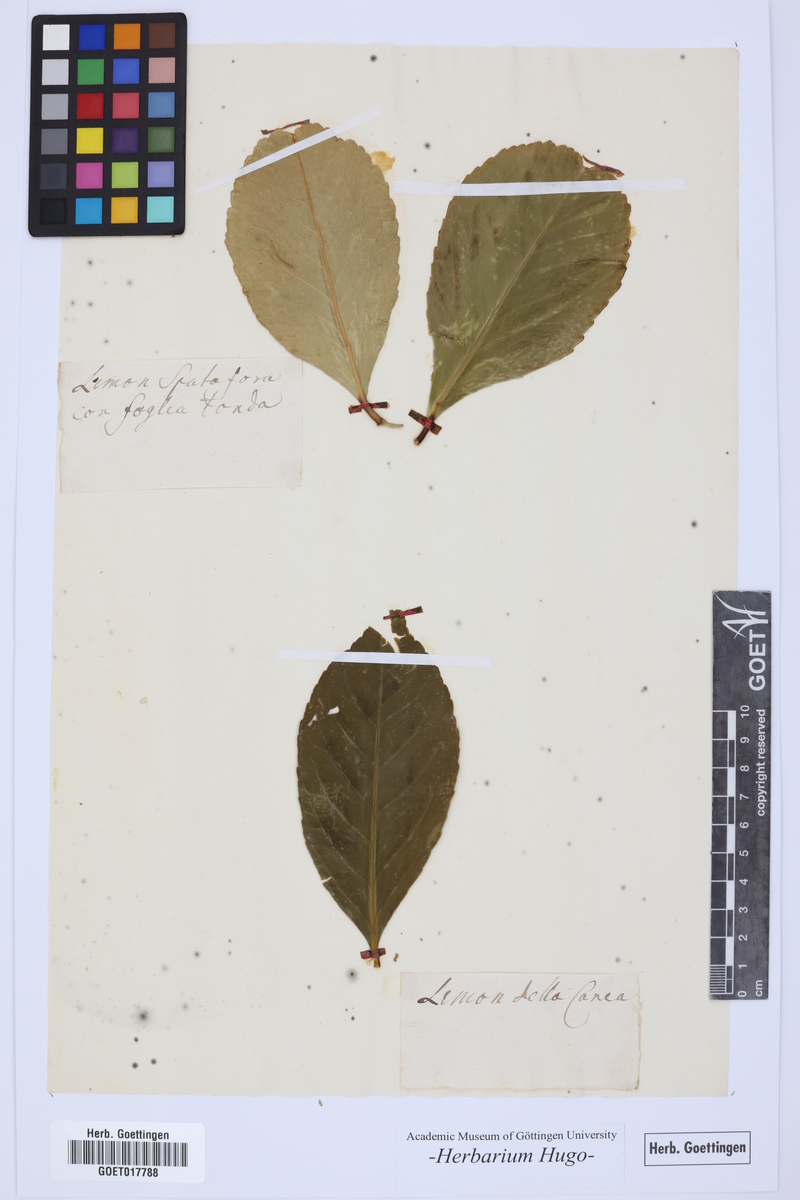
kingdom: Plantae
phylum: Tracheophyta
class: Magnoliopsida
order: Sapindales
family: Rutaceae
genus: Citrus
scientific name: Citrus
